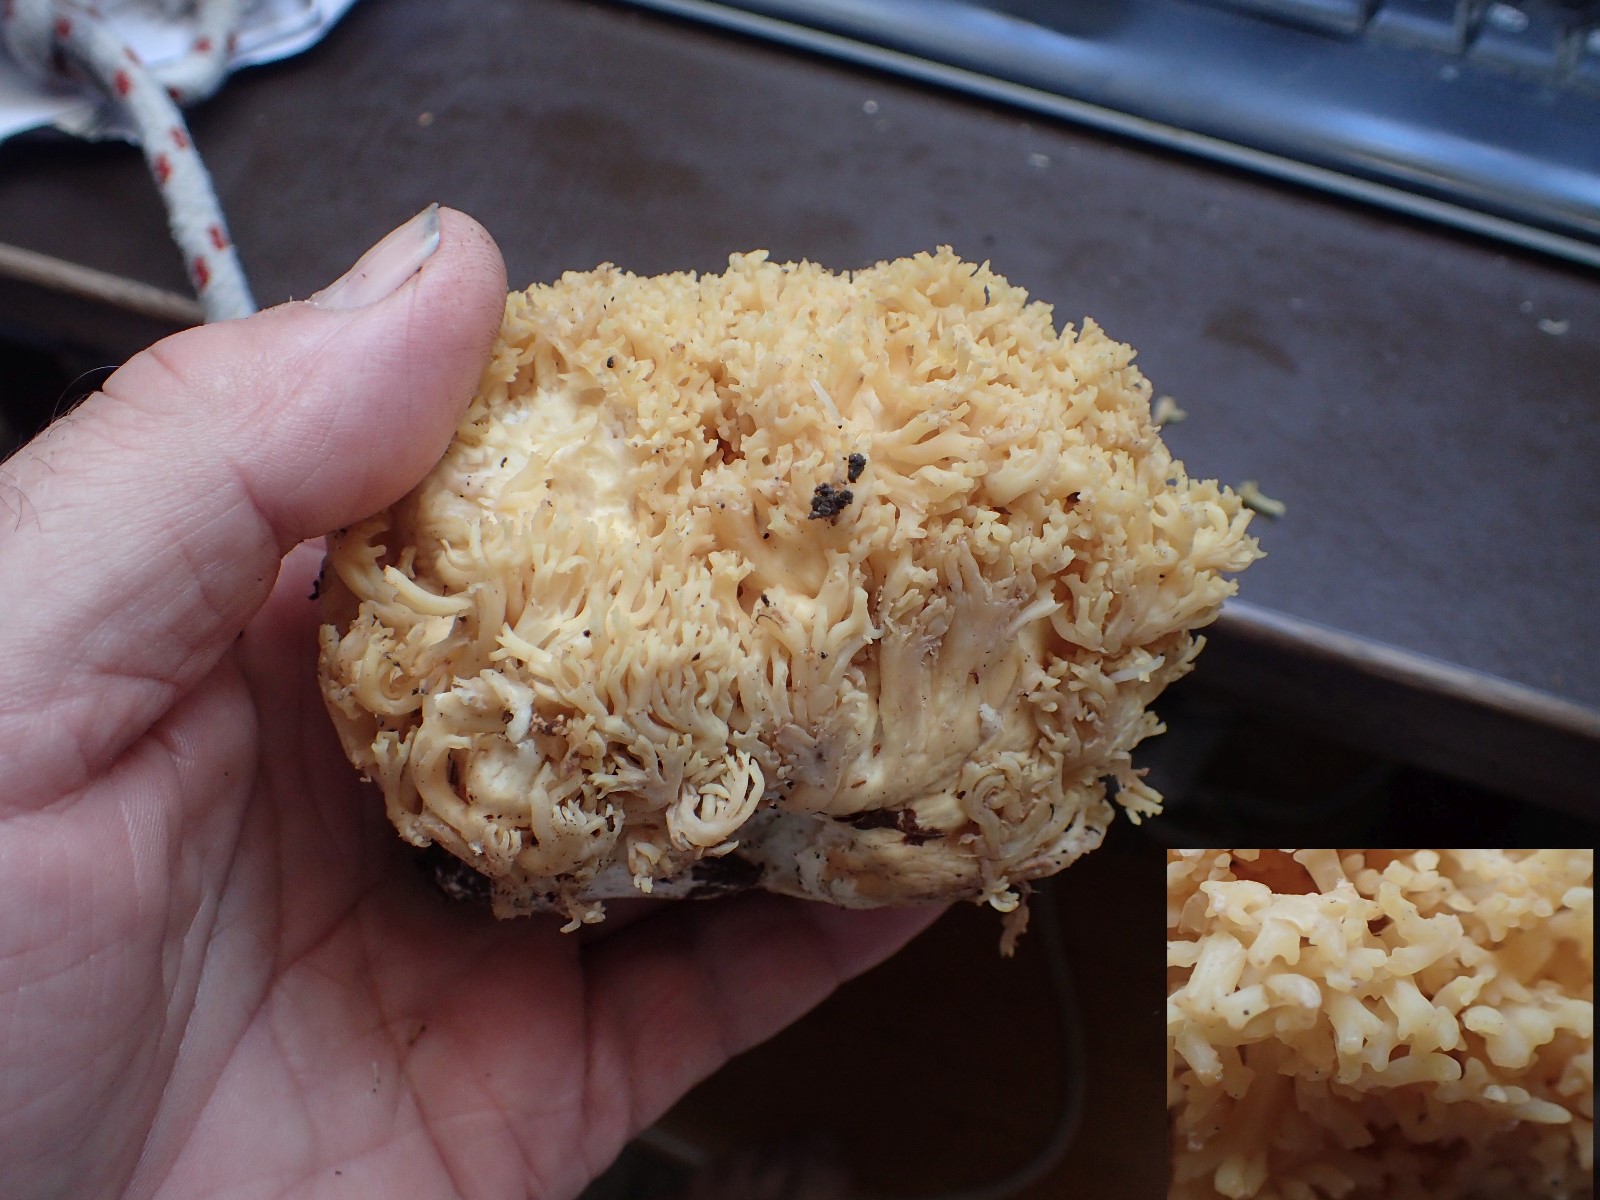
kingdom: Fungi
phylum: Basidiomycota
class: Agaricomycetes
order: Gomphales
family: Gomphaceae
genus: Ramaria
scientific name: Ramaria
